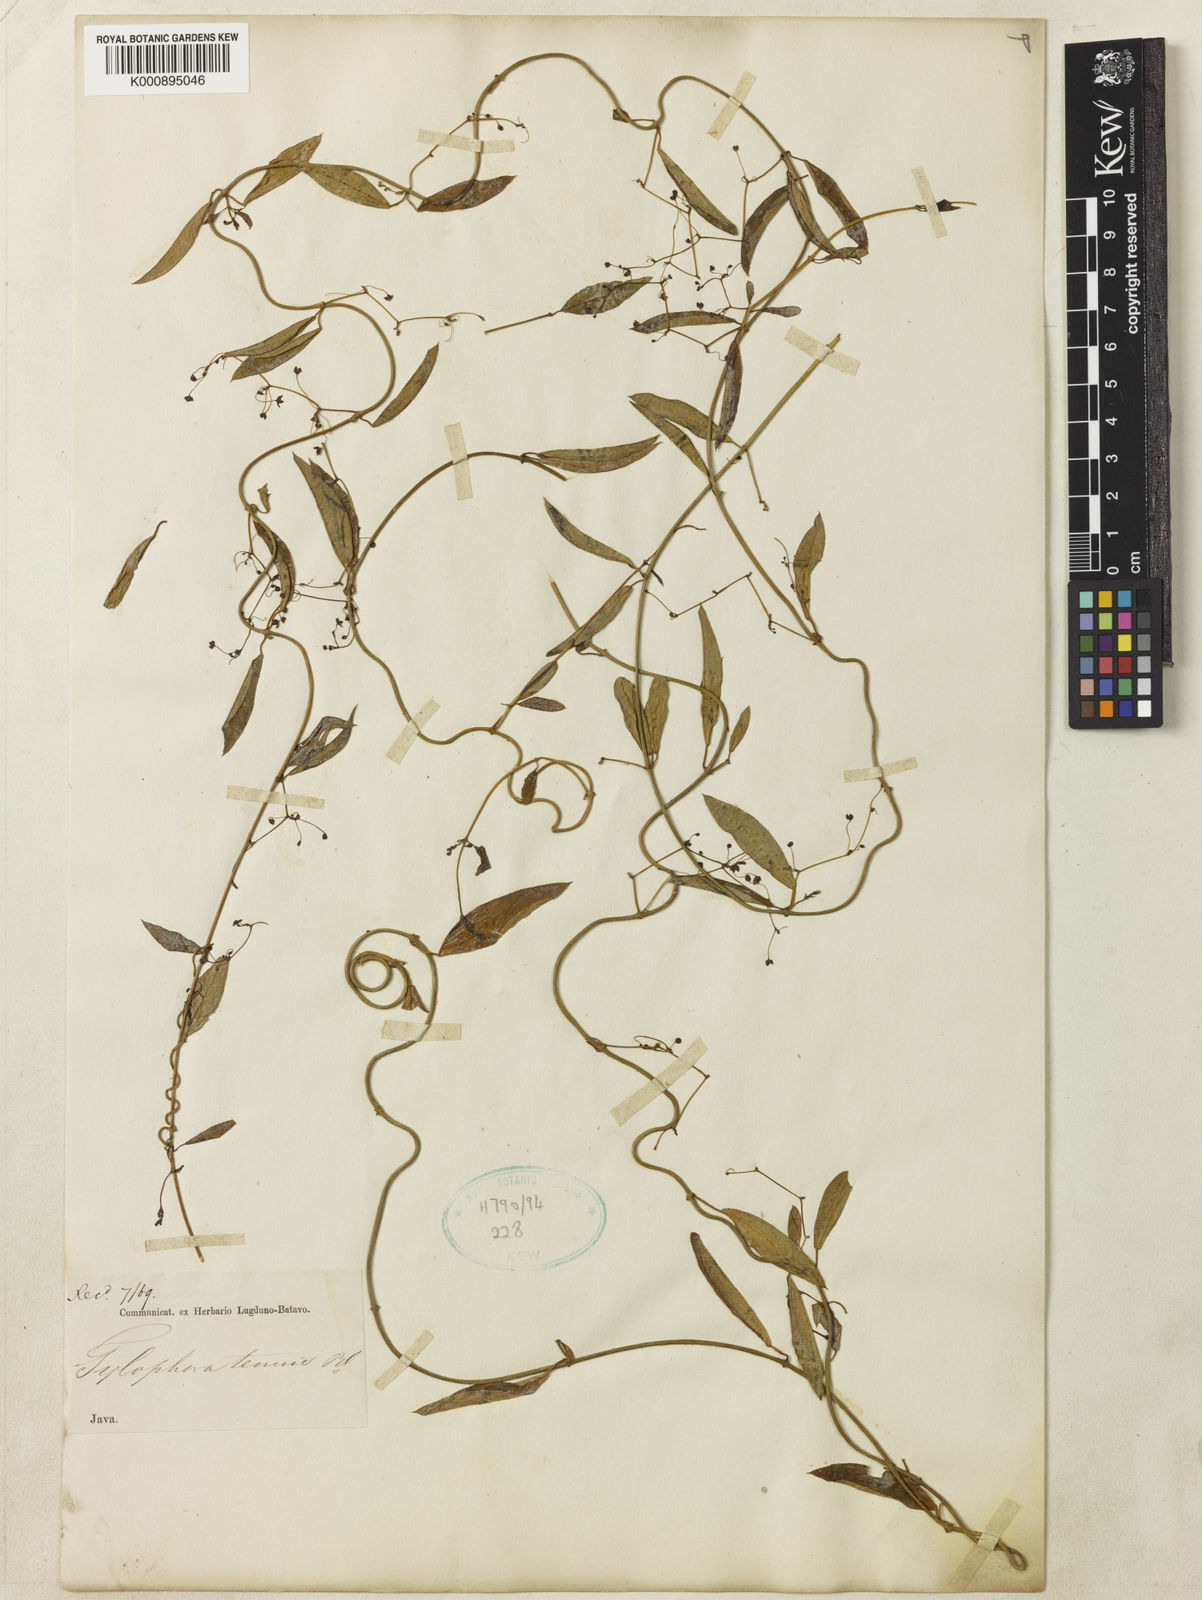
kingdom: Plantae
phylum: Tracheophyta
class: Magnoliopsida
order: Gentianales
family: Apocynaceae
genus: Vincetoxicum
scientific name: Vincetoxicum flexuosum
